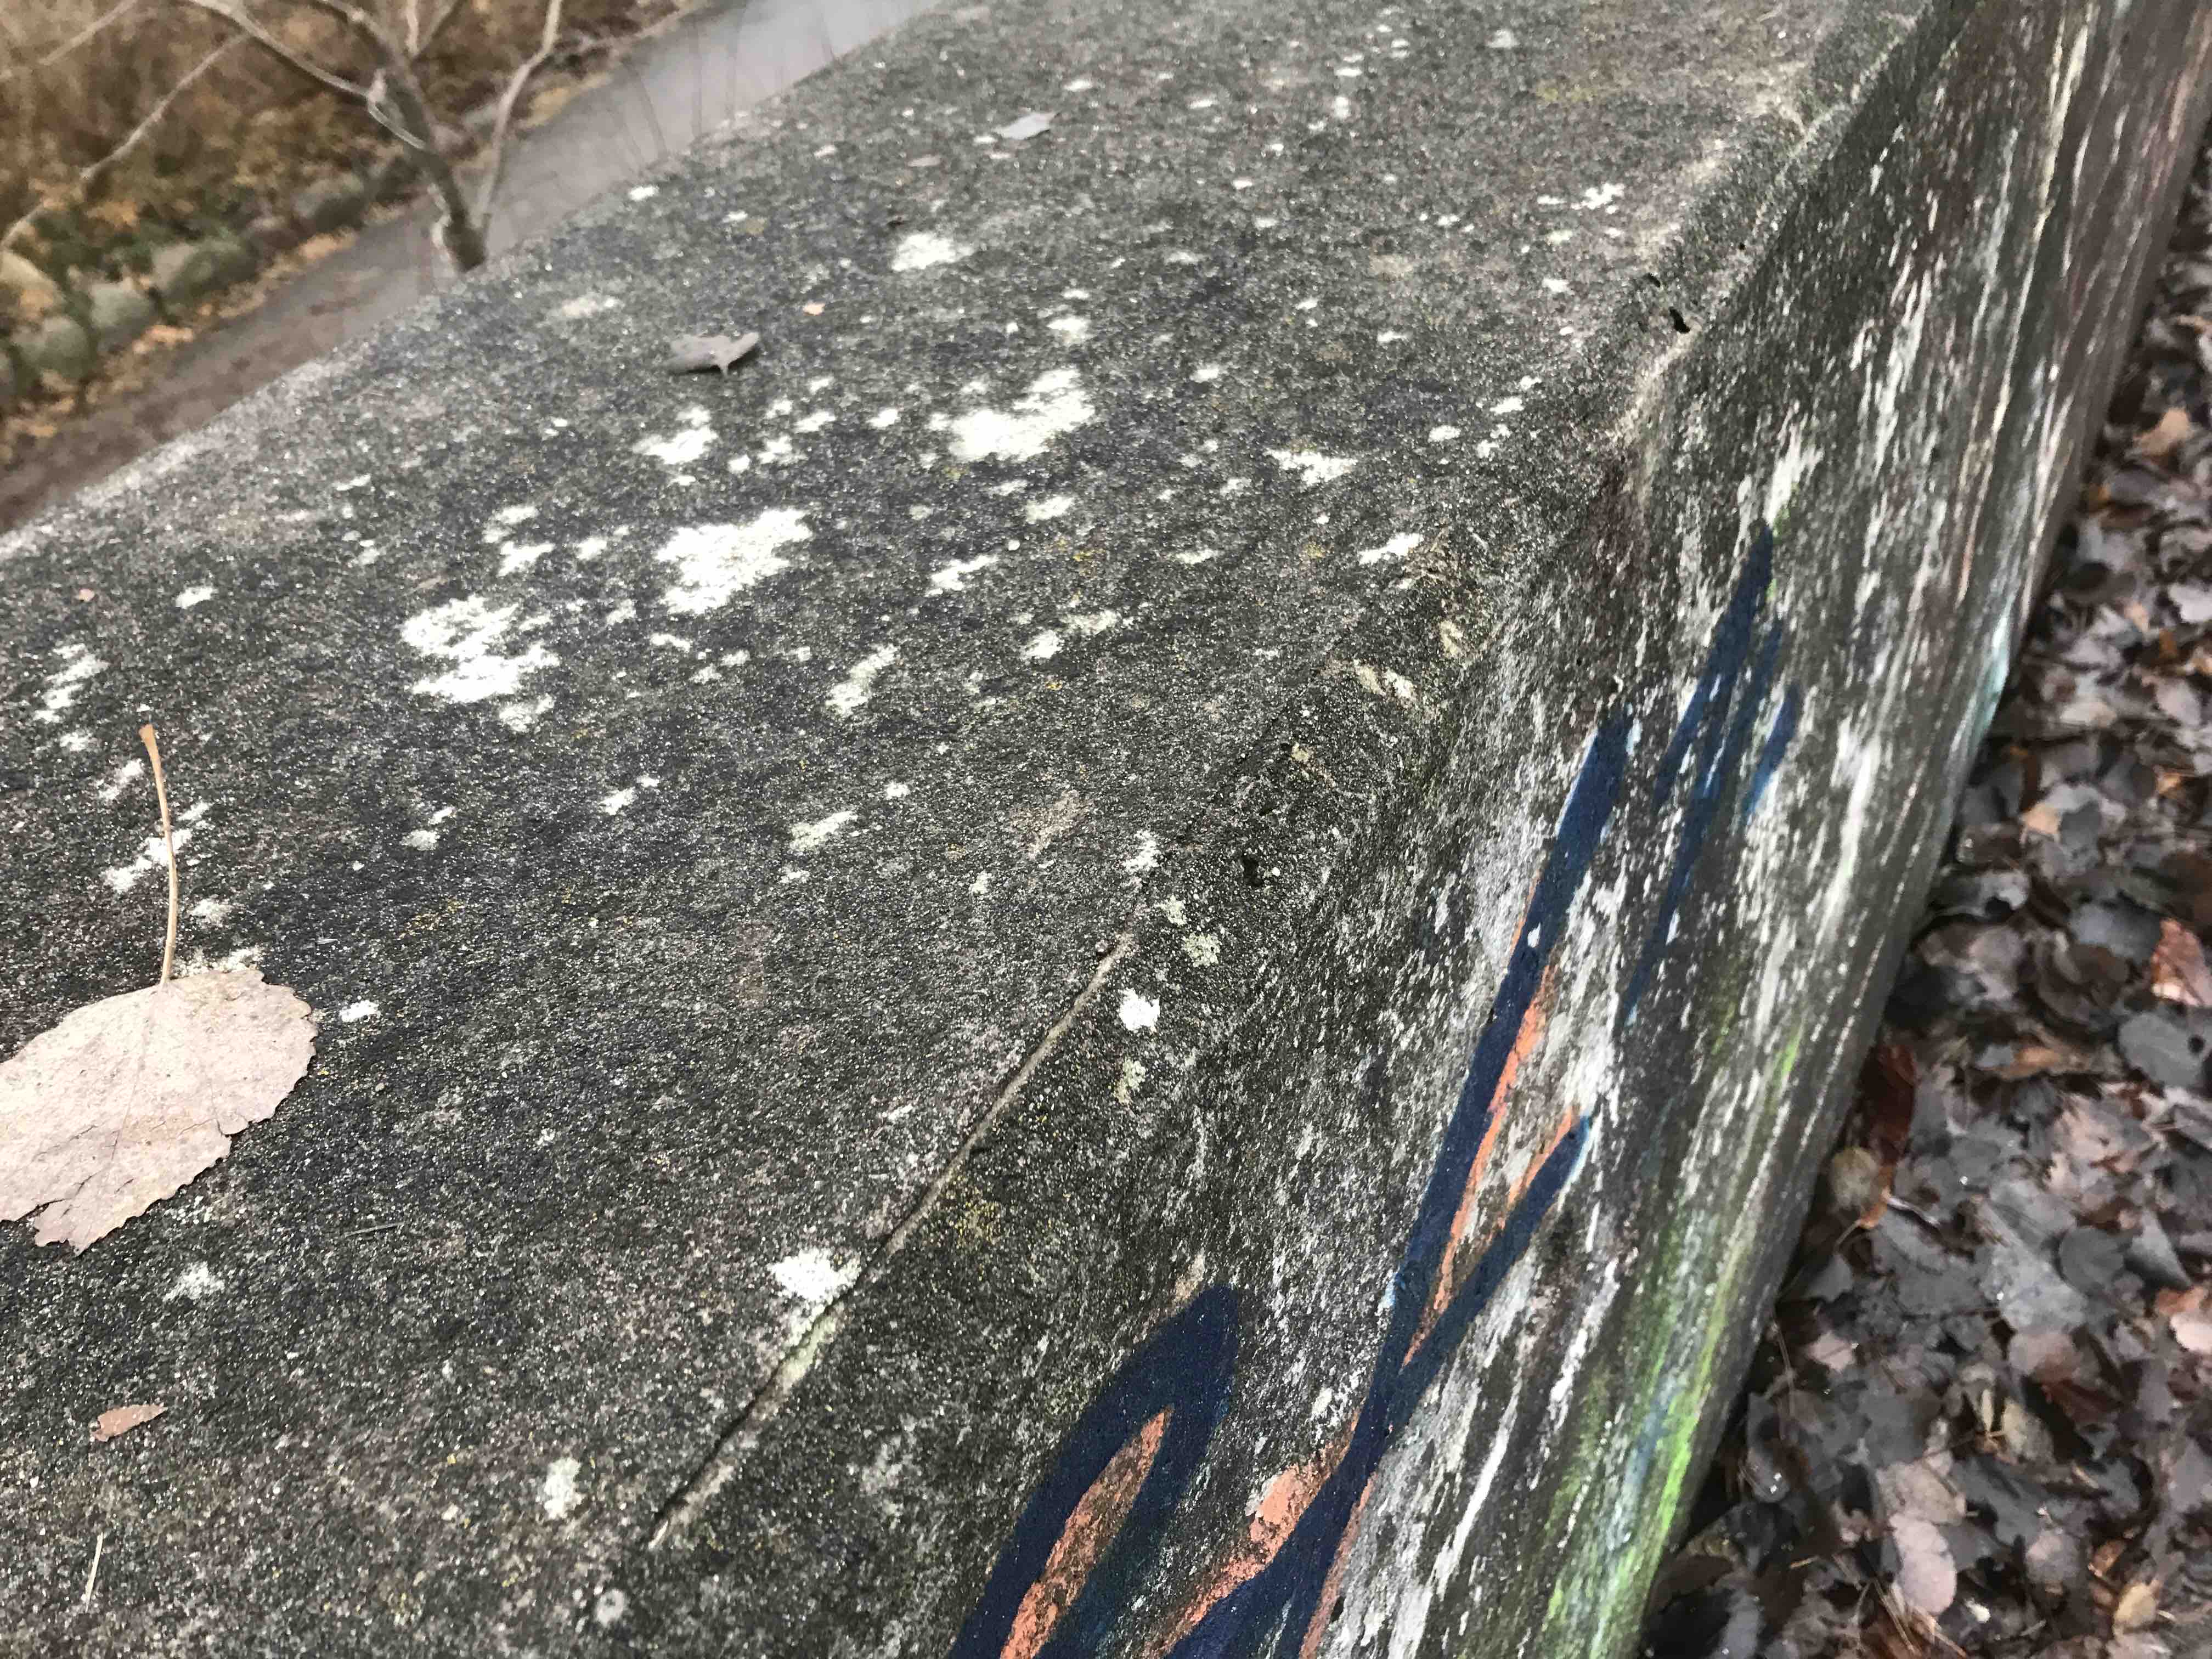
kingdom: Fungi
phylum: Ascomycota
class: Lecanoromycetes
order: Pertusariales
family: Megasporaceae
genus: Circinaria
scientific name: Circinaria contorta
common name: indviklet hulskivelav
